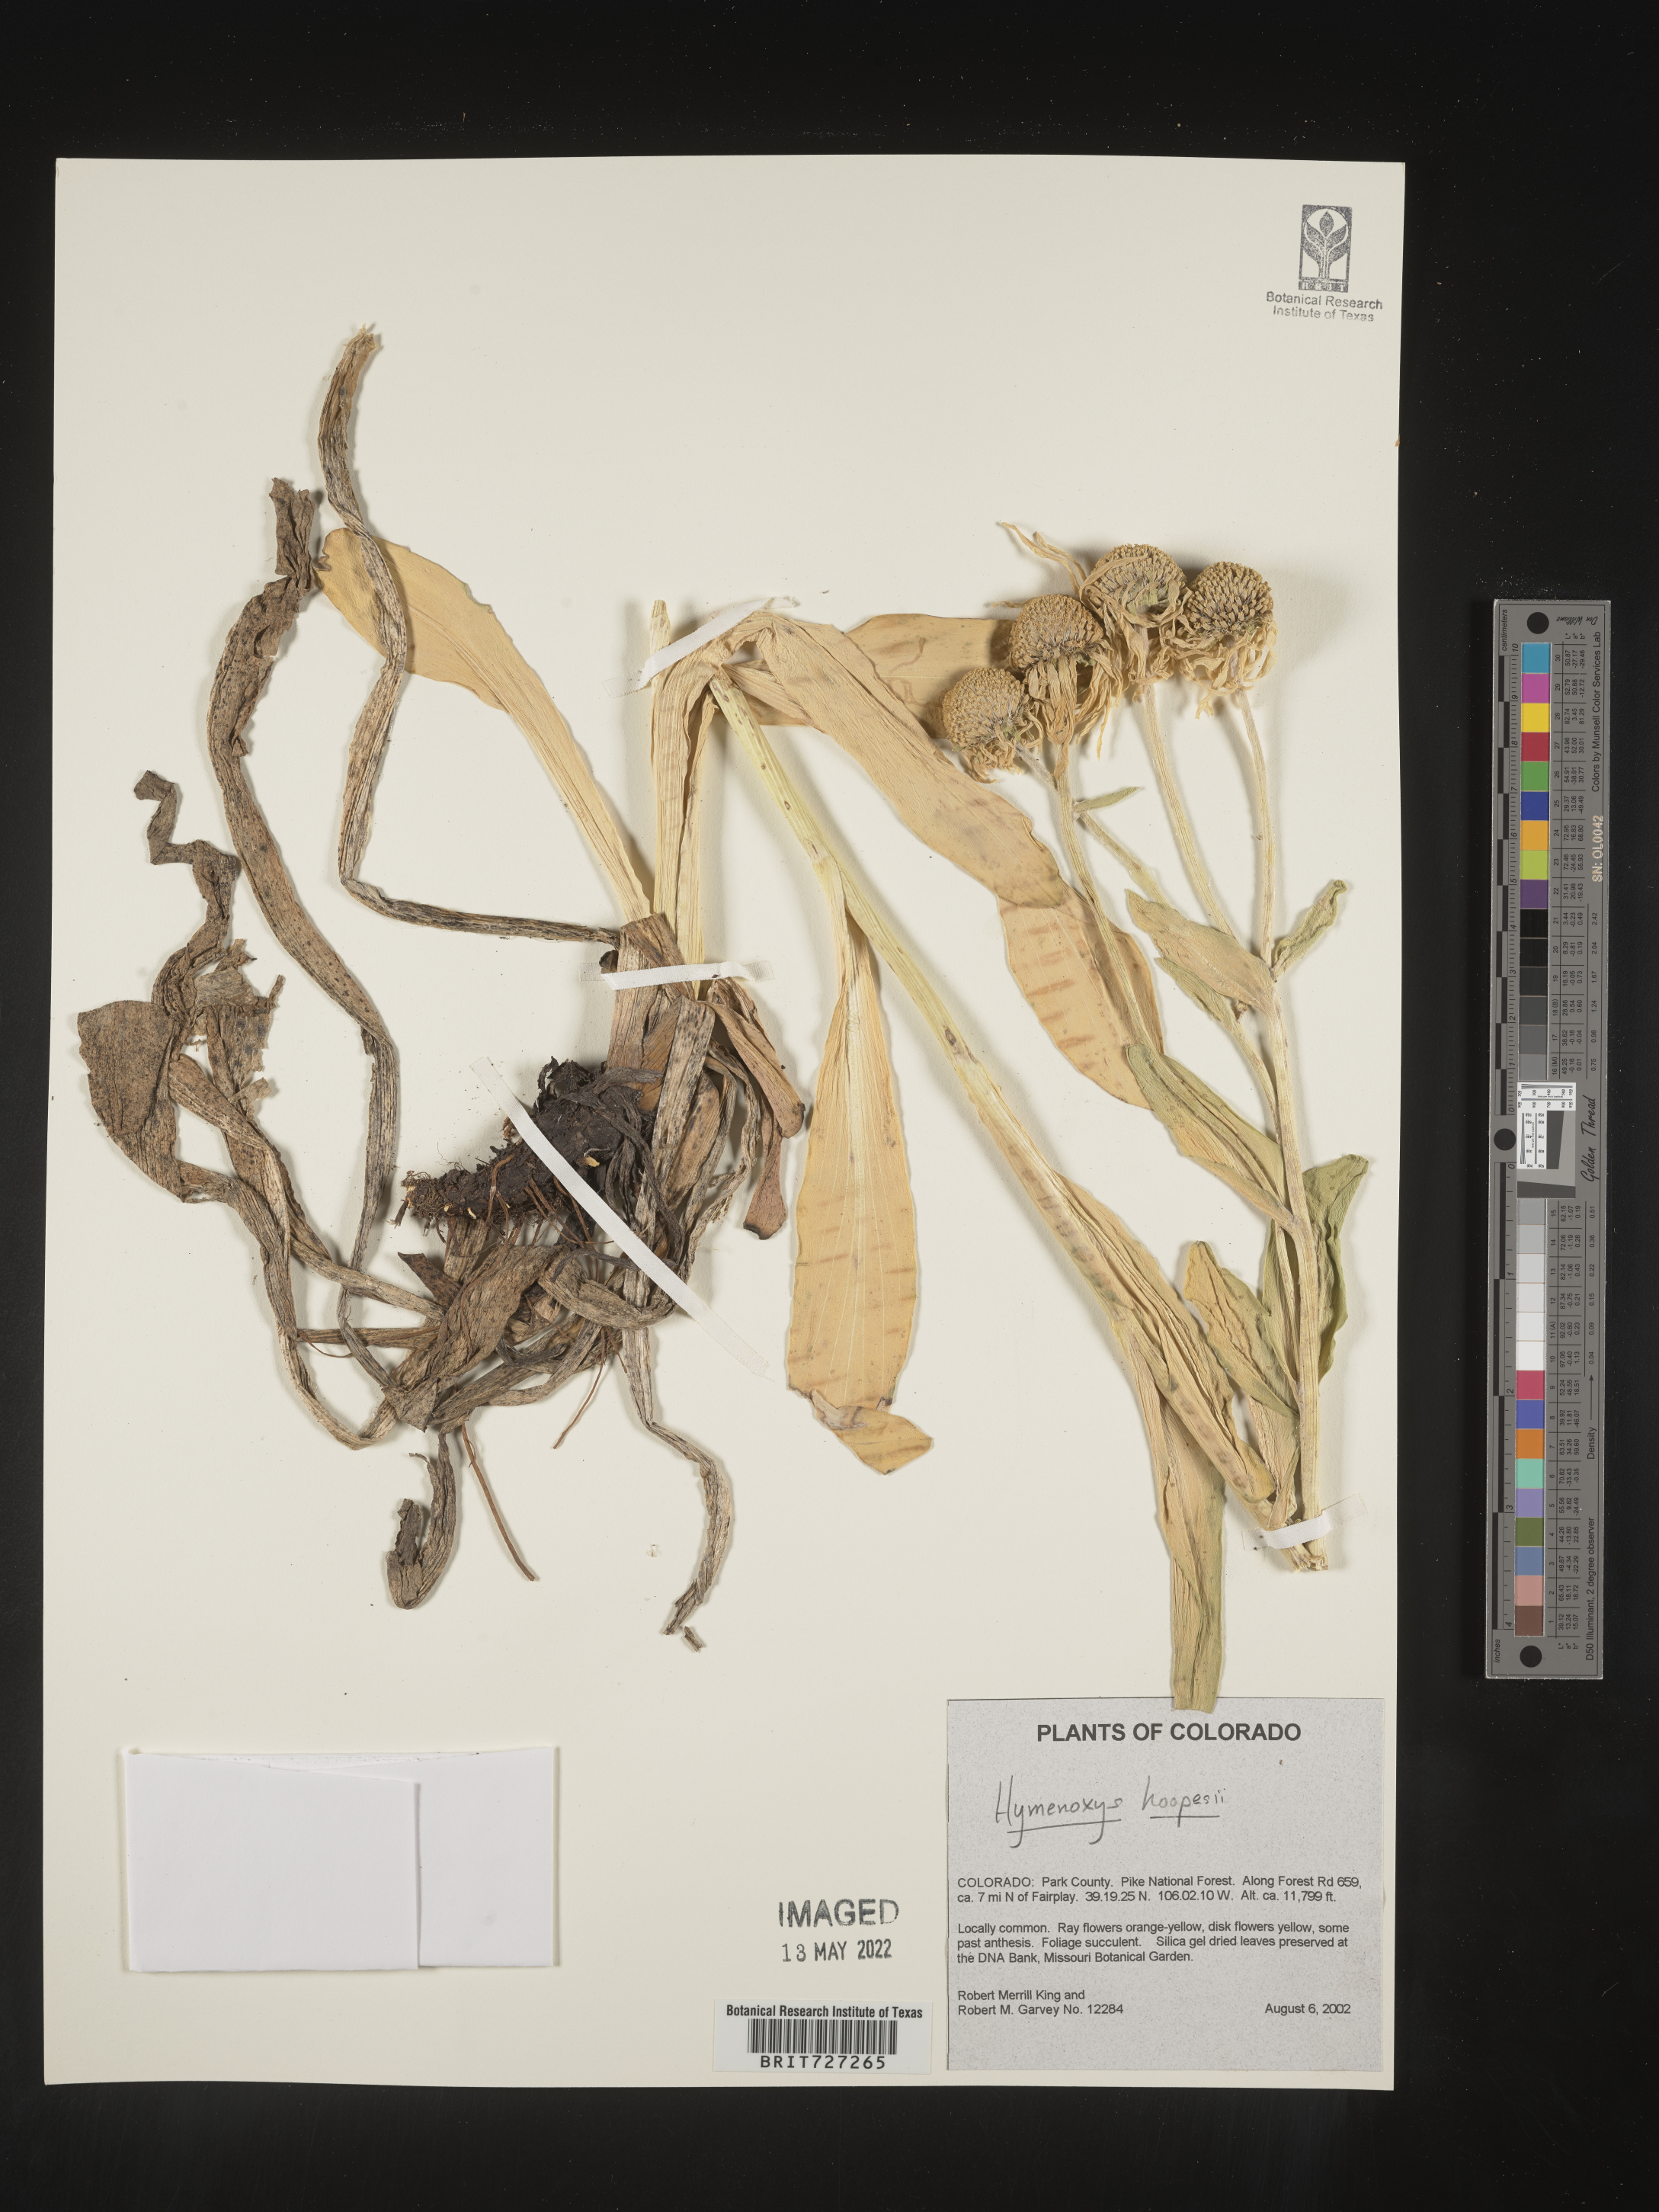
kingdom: Plantae
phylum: Tracheophyta
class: Magnoliopsida
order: Asterales
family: Asteraceae
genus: Hymenoxys
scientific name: Hymenoxys hoopesii
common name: Orange-sneezeweed
